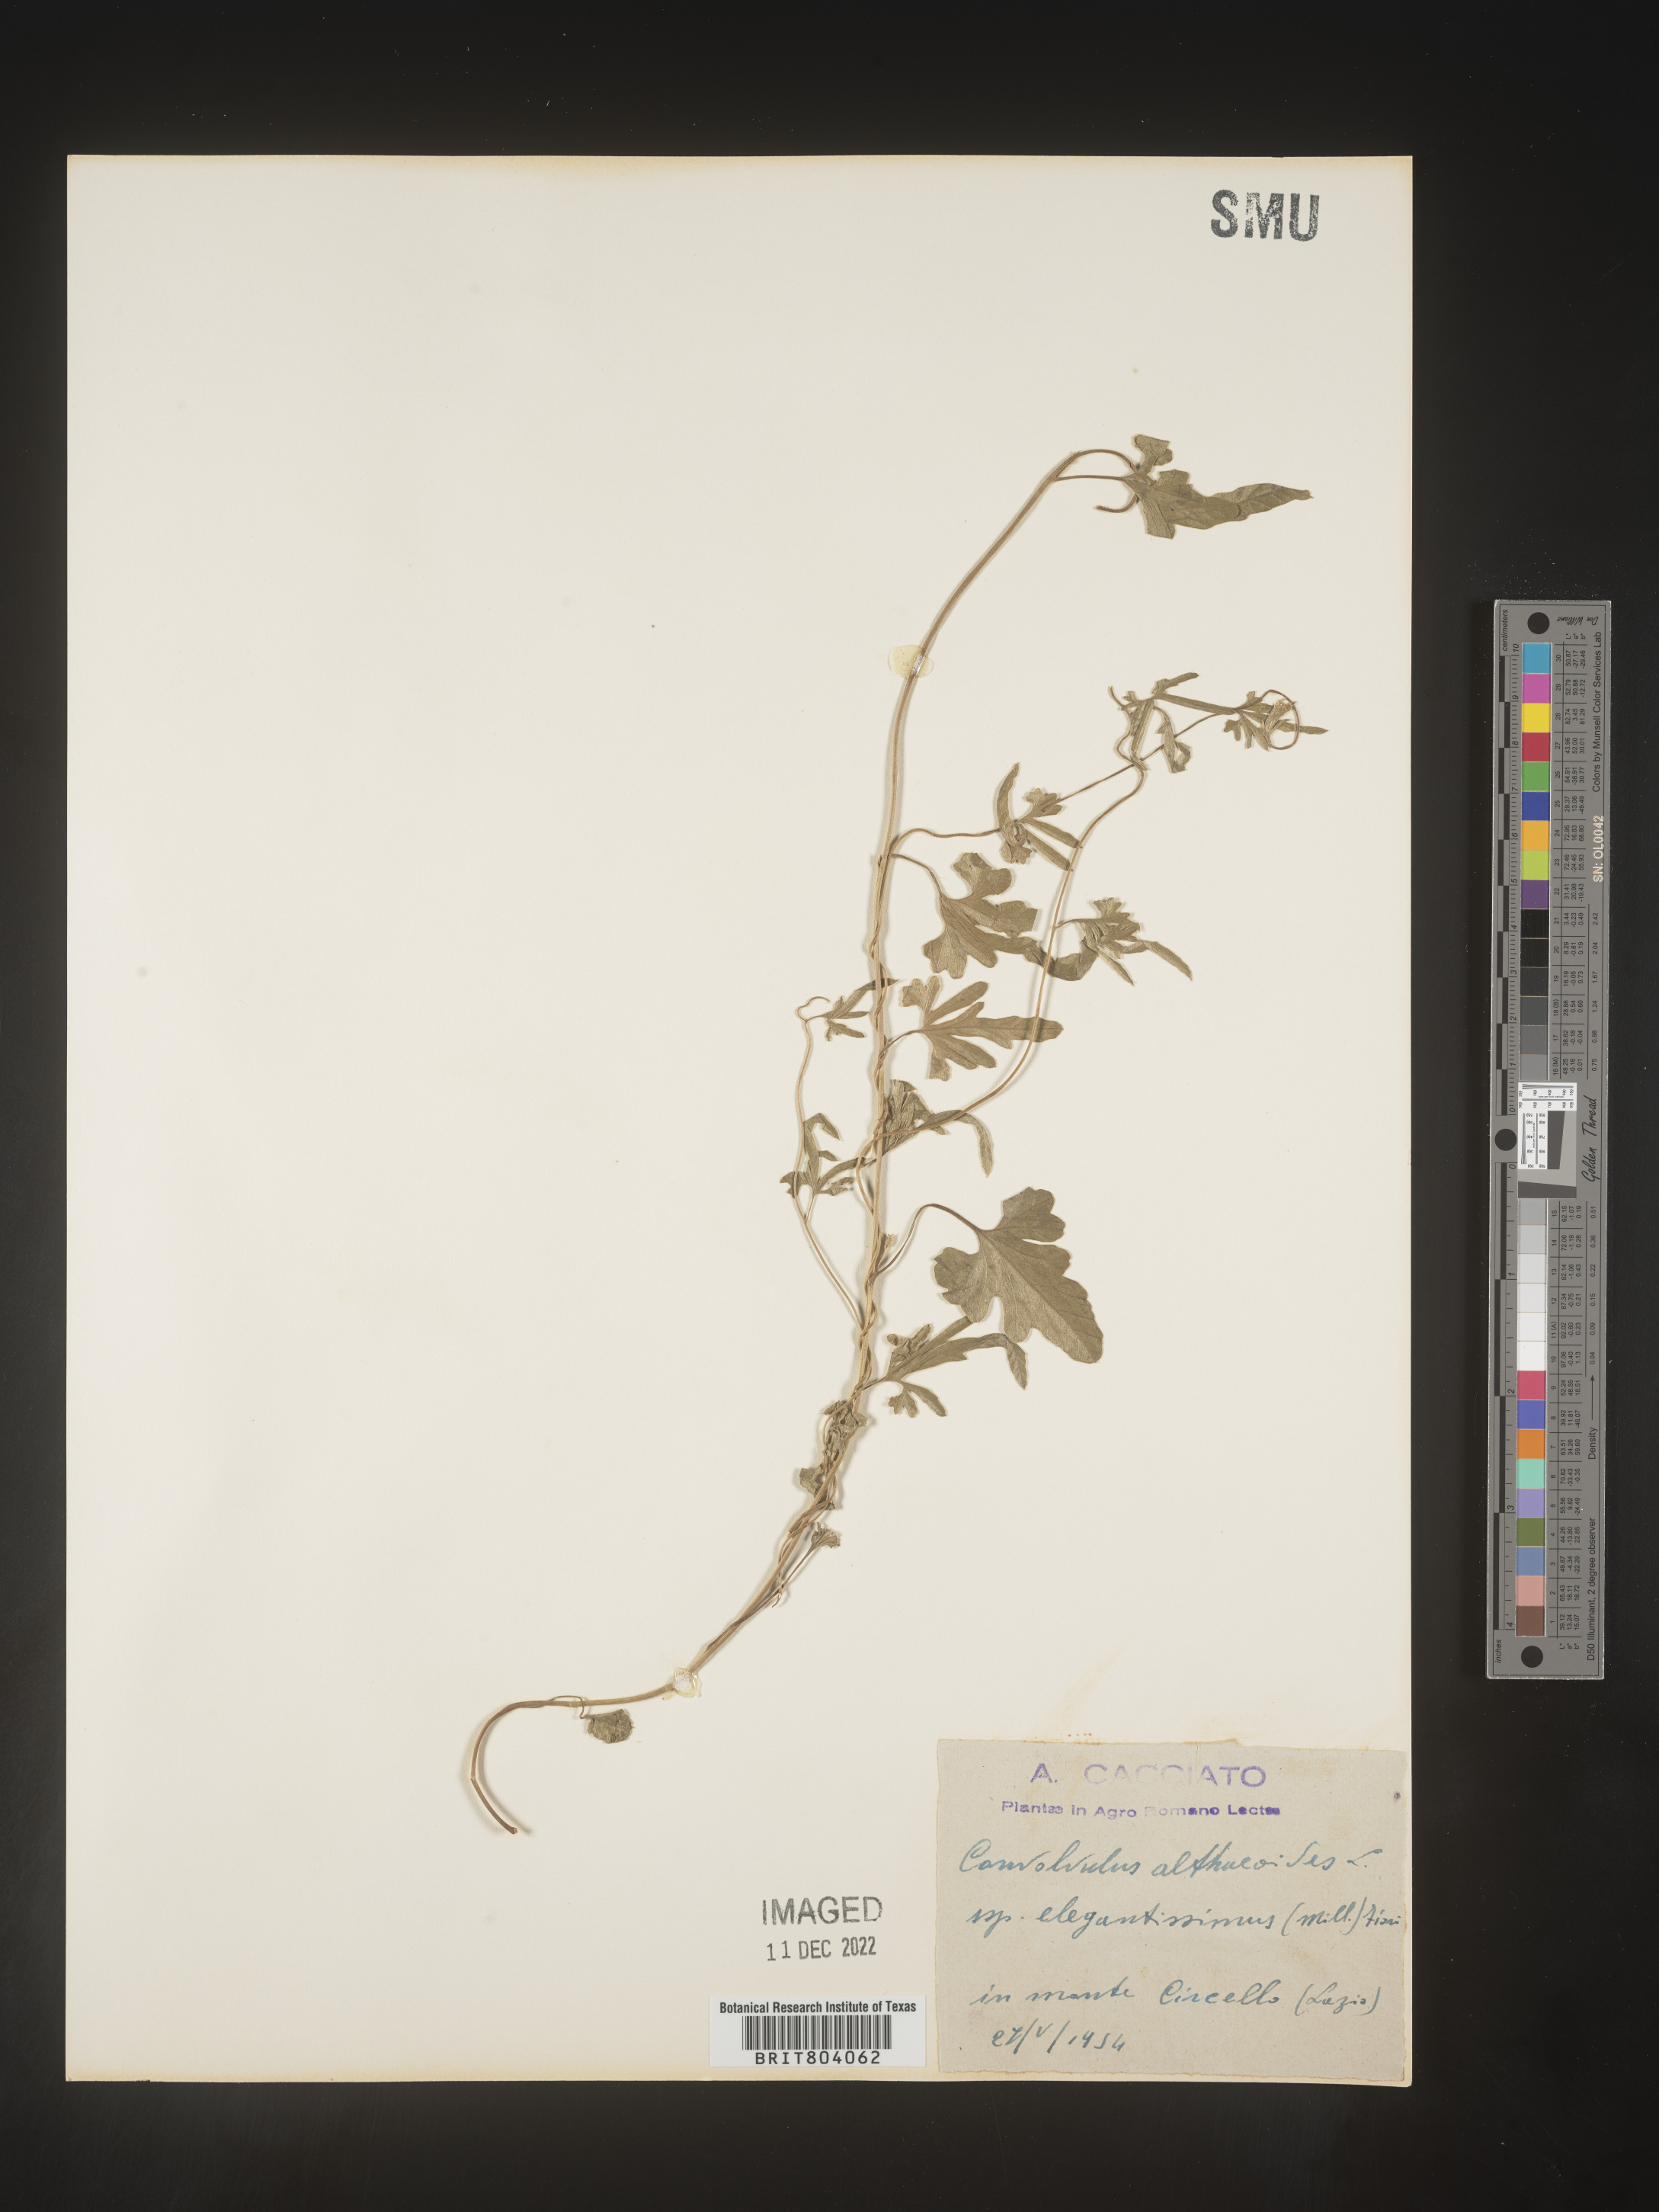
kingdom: Plantae
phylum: Tracheophyta
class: Magnoliopsida
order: Solanales
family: Convolvulaceae
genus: Convolvulus
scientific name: Convolvulus
